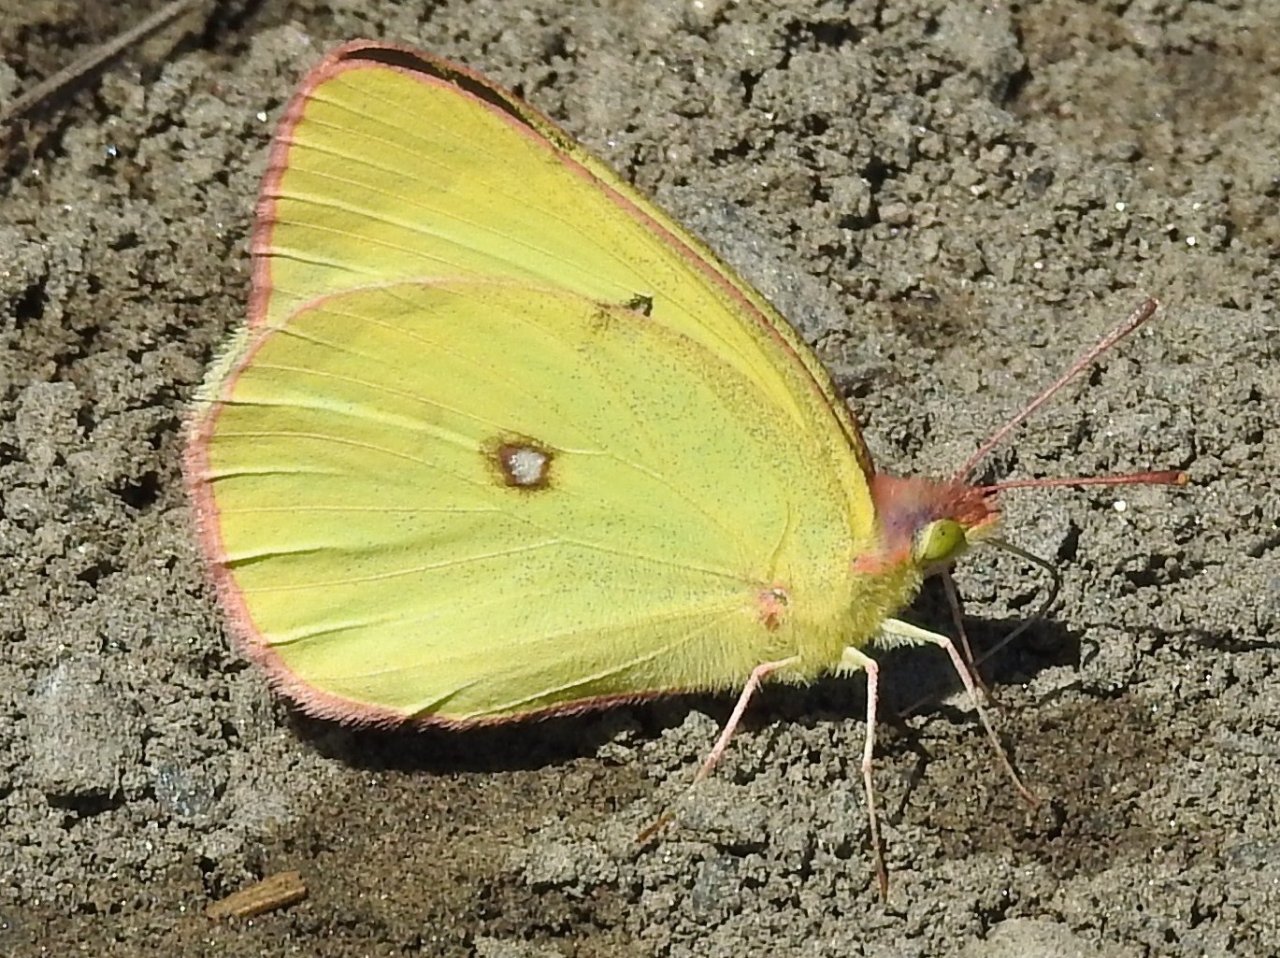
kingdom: Animalia
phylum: Arthropoda
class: Insecta
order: Lepidoptera
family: Pieridae
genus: Colias
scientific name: Colias interior
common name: Pink-edged Sulphur
